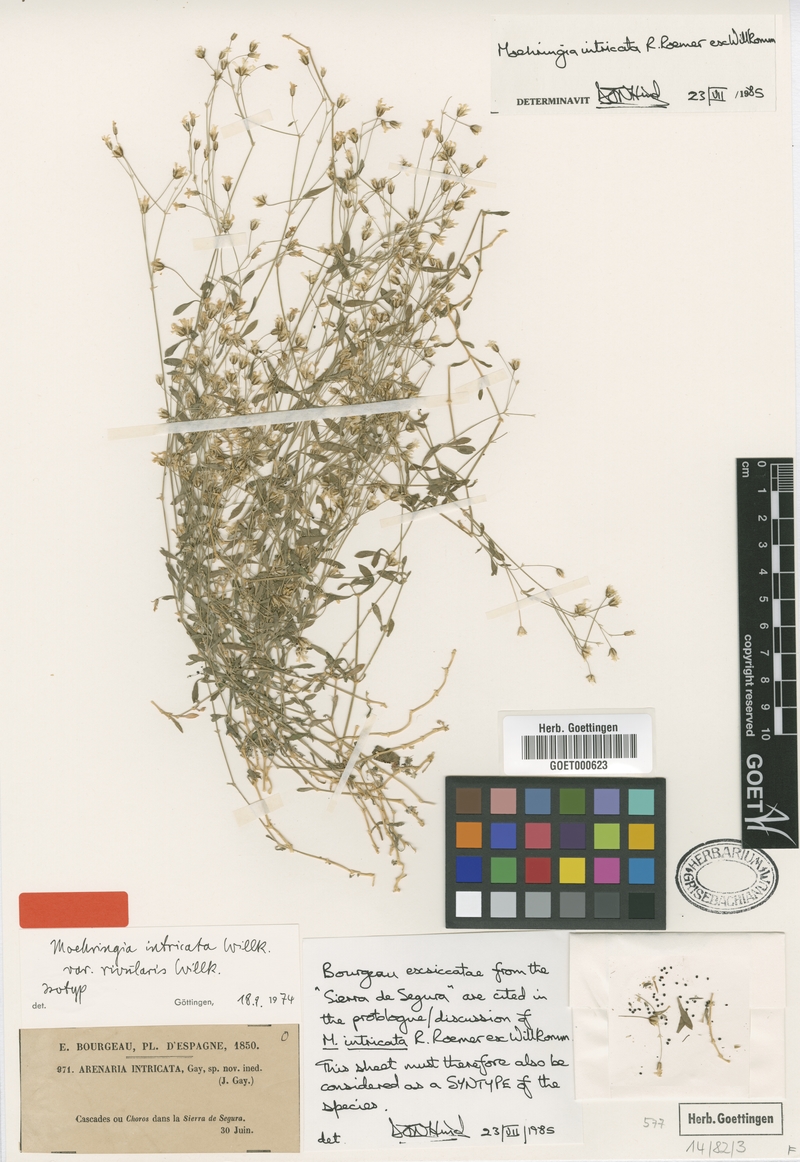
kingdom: Plantae
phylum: Tracheophyta
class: Magnoliopsida
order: Caryophyllales
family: Caryophyllaceae
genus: Arenaria
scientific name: Arenaria suffruticosa
